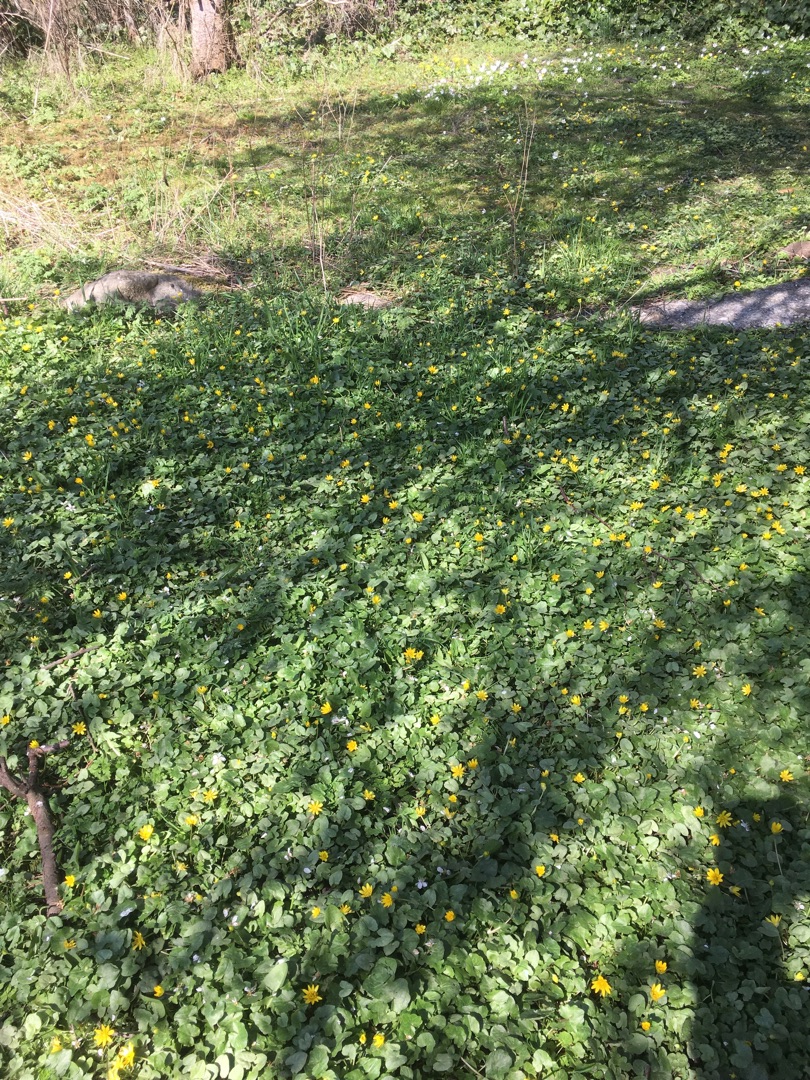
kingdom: Plantae
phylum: Tracheophyta
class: Magnoliopsida
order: Ranunculales
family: Ranunculaceae
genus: Ficaria
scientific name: Ficaria verna
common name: Vorterod
